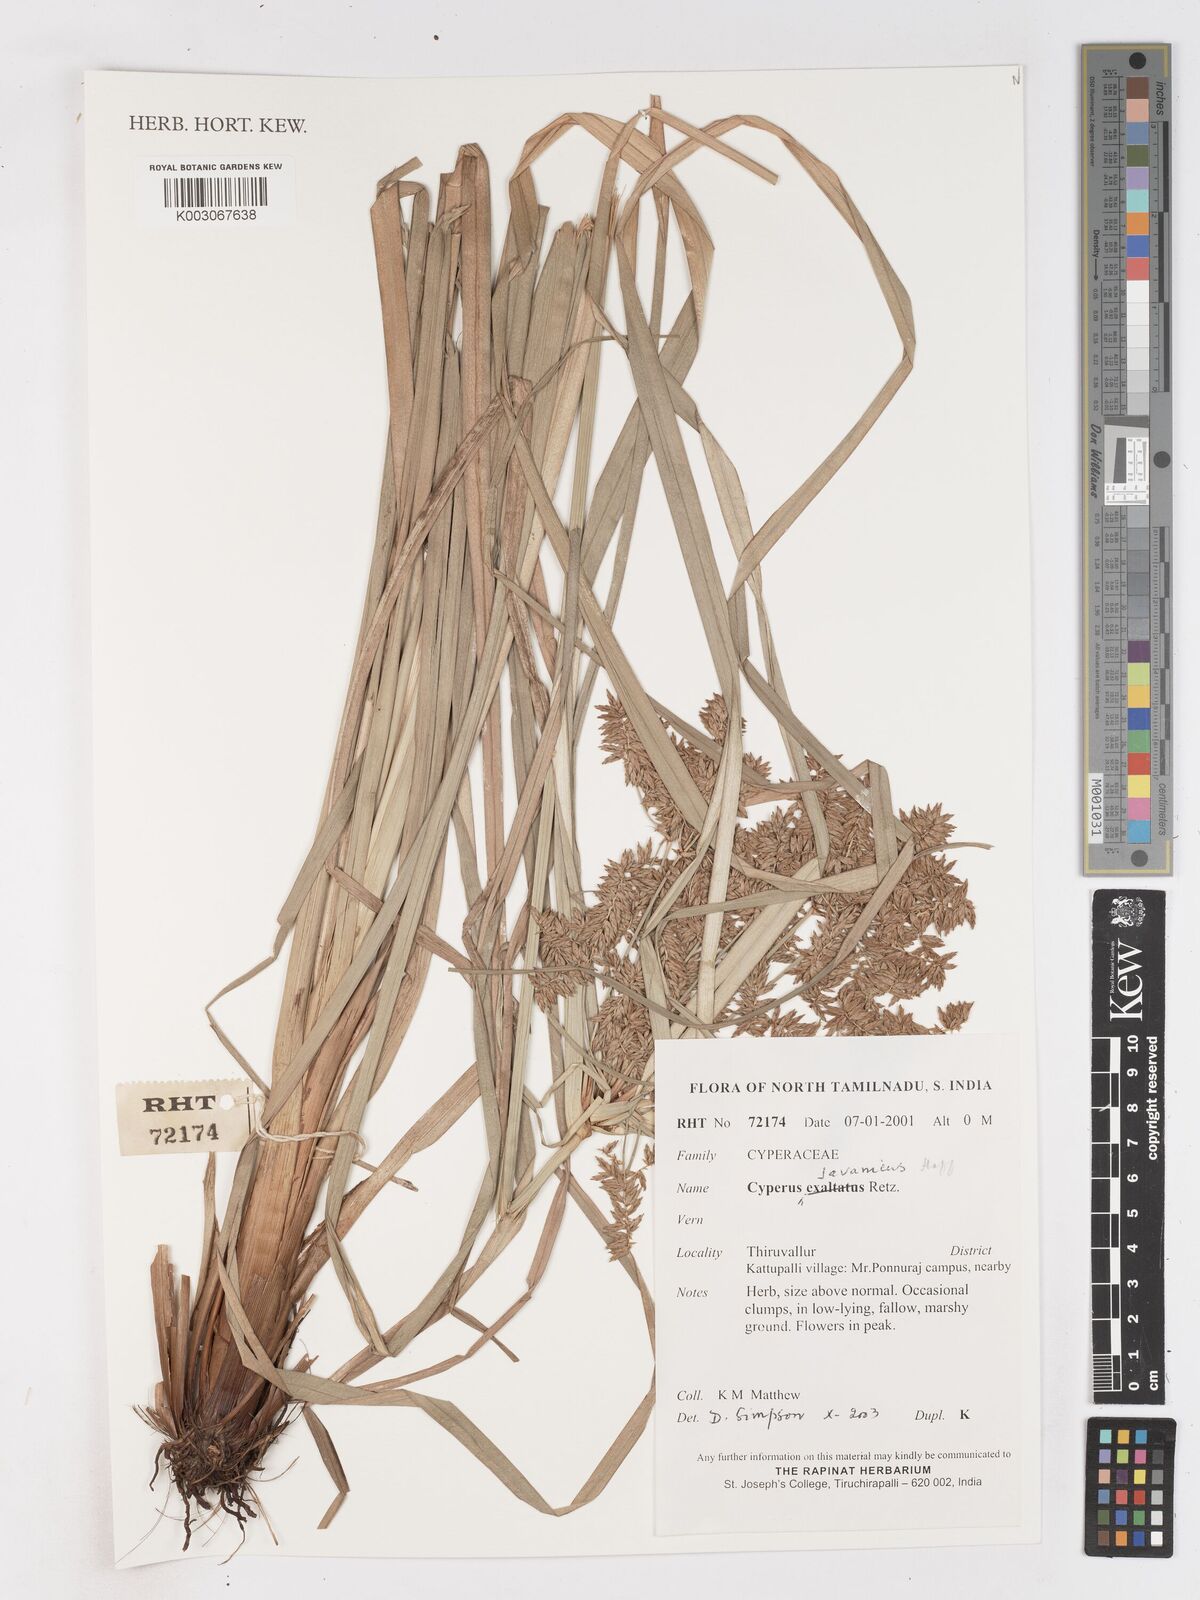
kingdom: Plantae
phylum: Tracheophyta
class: Liliopsida
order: Poales
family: Cyperaceae
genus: Cyperus
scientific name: Cyperus javanicus
